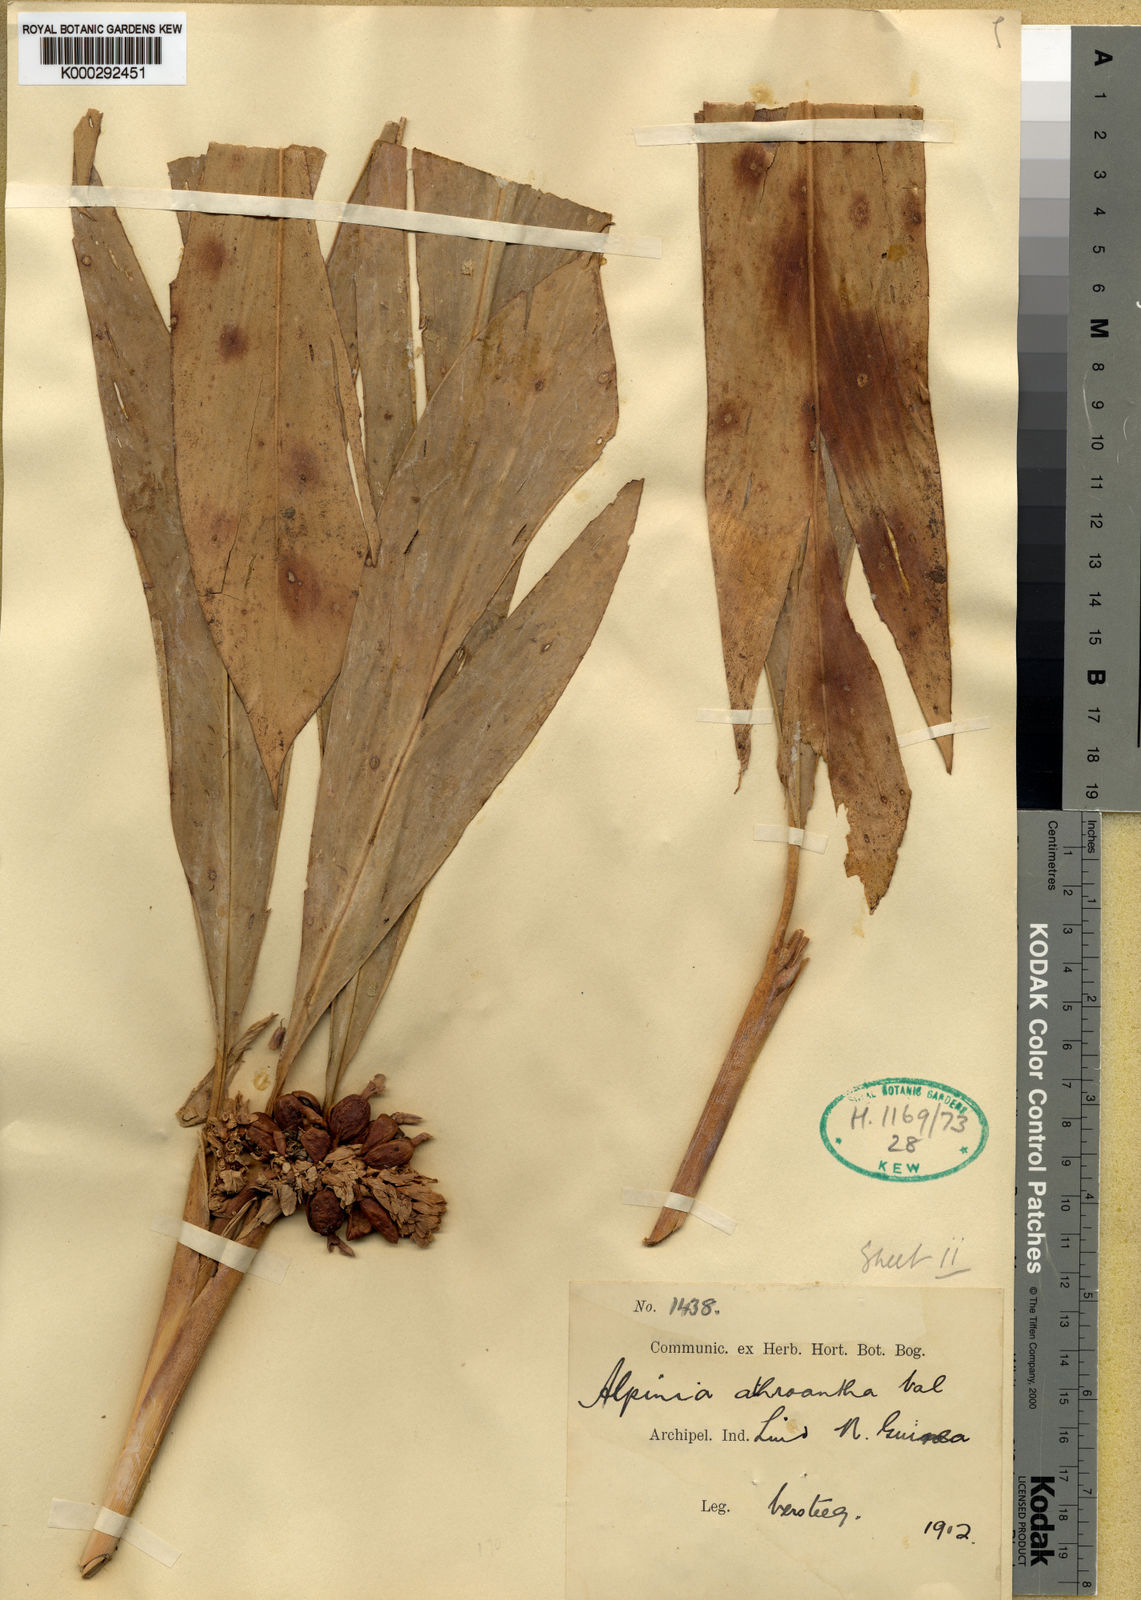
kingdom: Plantae
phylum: Tracheophyta
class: Liliopsida
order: Zingiberales
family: Zingiberaceae
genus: Alpinia
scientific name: Alpinia athroantha
